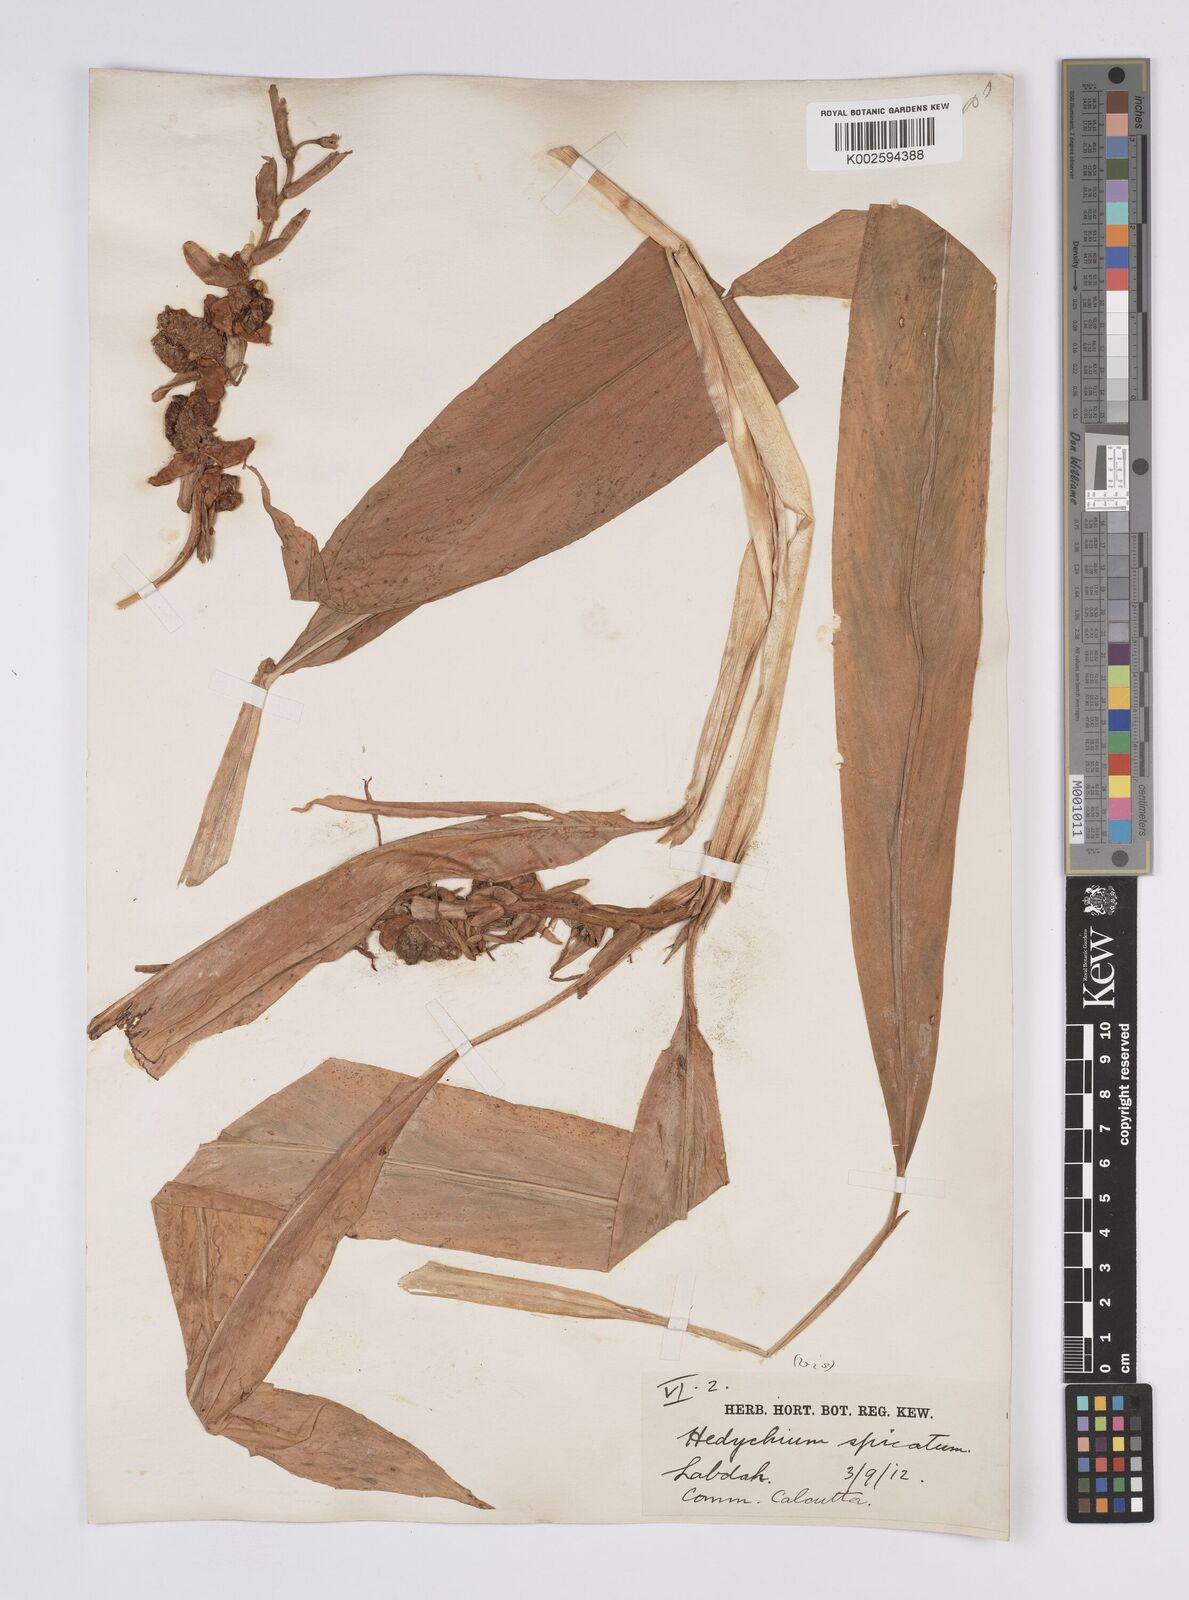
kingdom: Plantae
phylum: Tracheophyta
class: Liliopsida
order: Zingiberales
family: Zingiberaceae
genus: Hedychium
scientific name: Hedychium
